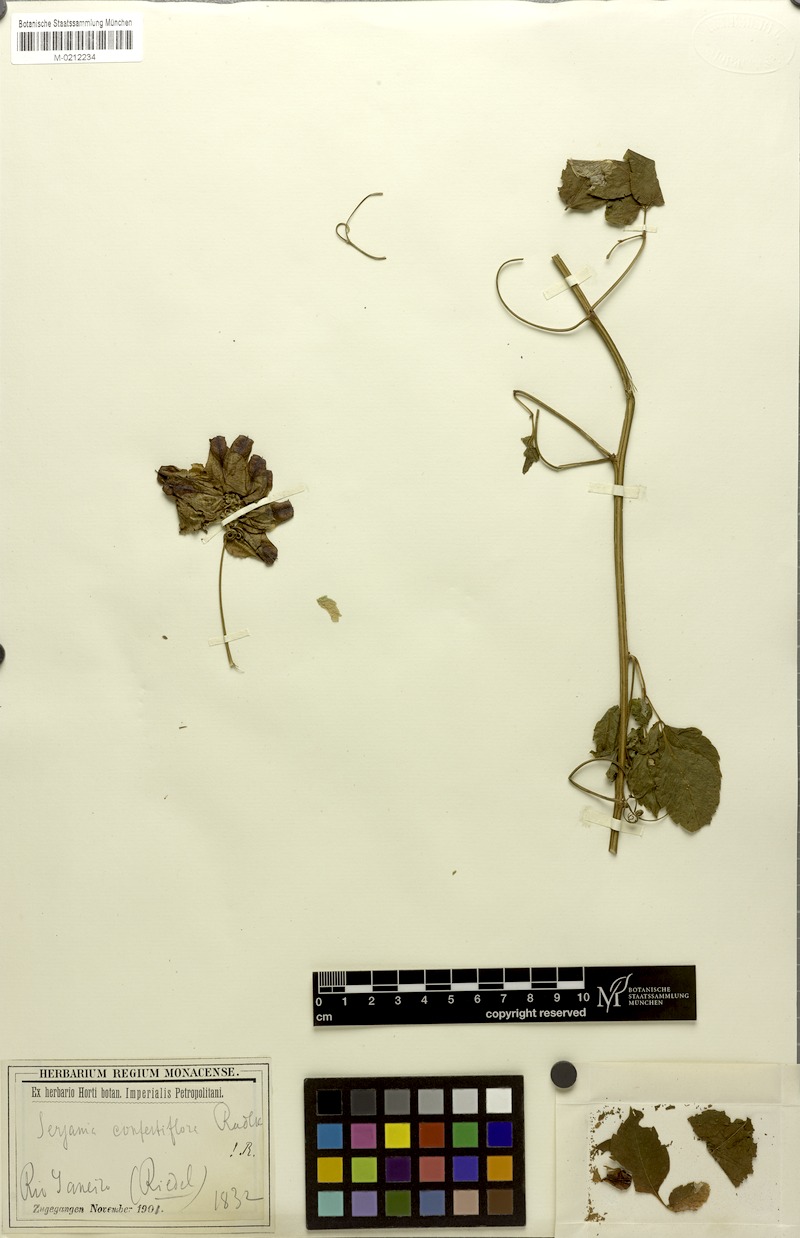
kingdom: Plantae
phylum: Tracheophyta
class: Magnoliopsida
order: Sapindales
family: Sapindaceae
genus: Serjania
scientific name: Serjania confertiflora
